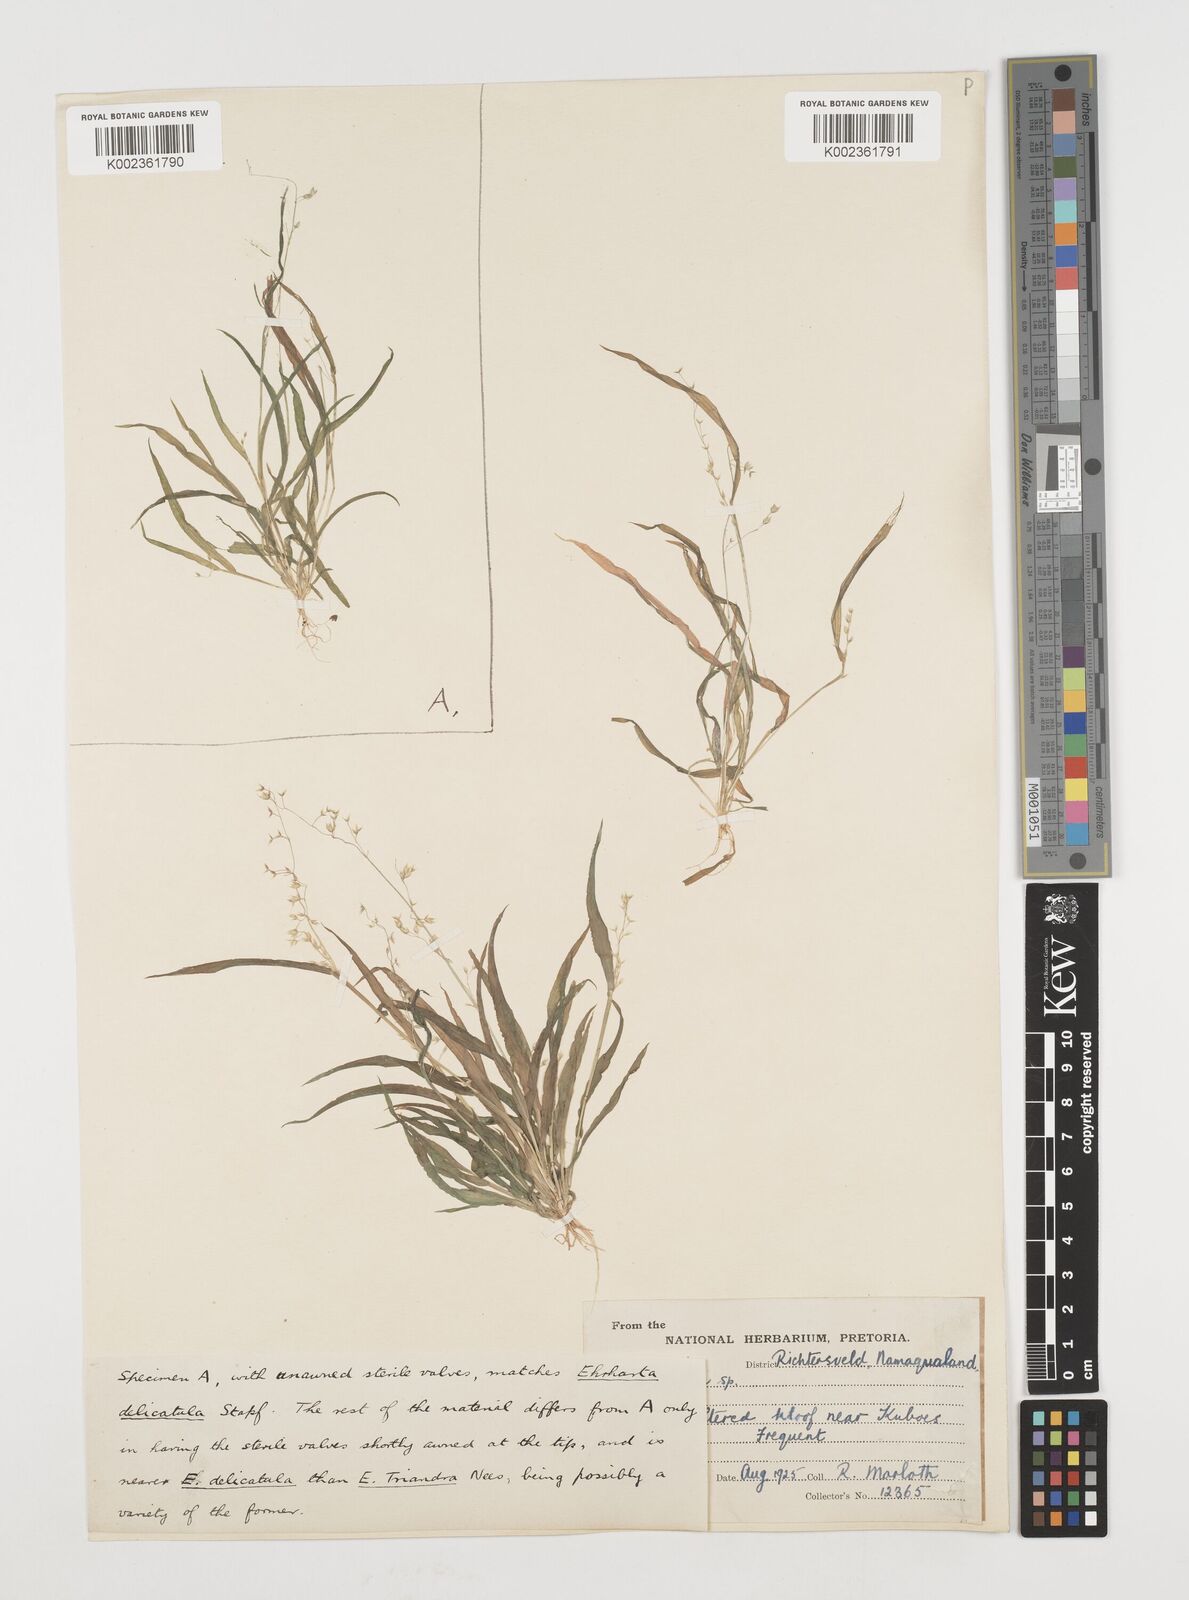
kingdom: Plantae
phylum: Tracheophyta
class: Liliopsida
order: Poales
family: Poaceae
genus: Ehrharta
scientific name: Ehrharta delicatula
